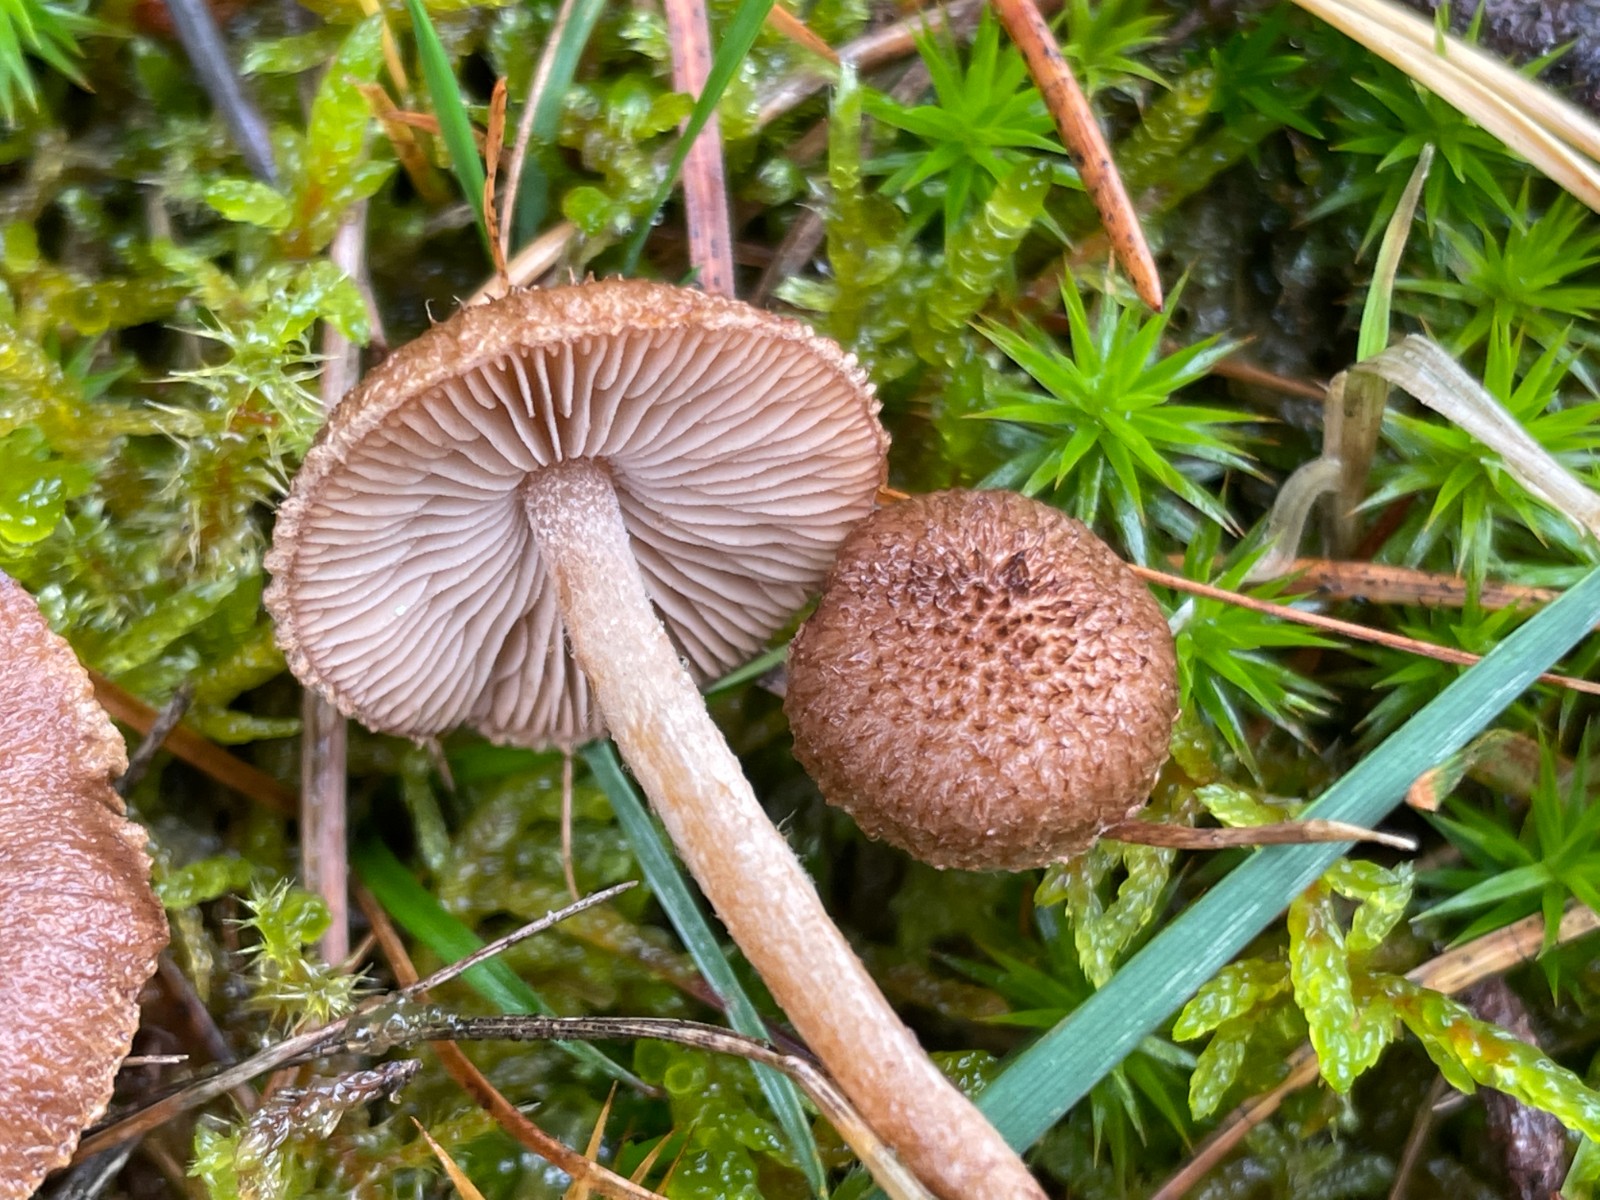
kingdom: Fungi
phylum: Basidiomycota
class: Agaricomycetes
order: Agaricales
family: Inocybaceae
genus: Inocybe
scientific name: Inocybe
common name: trævlhat
